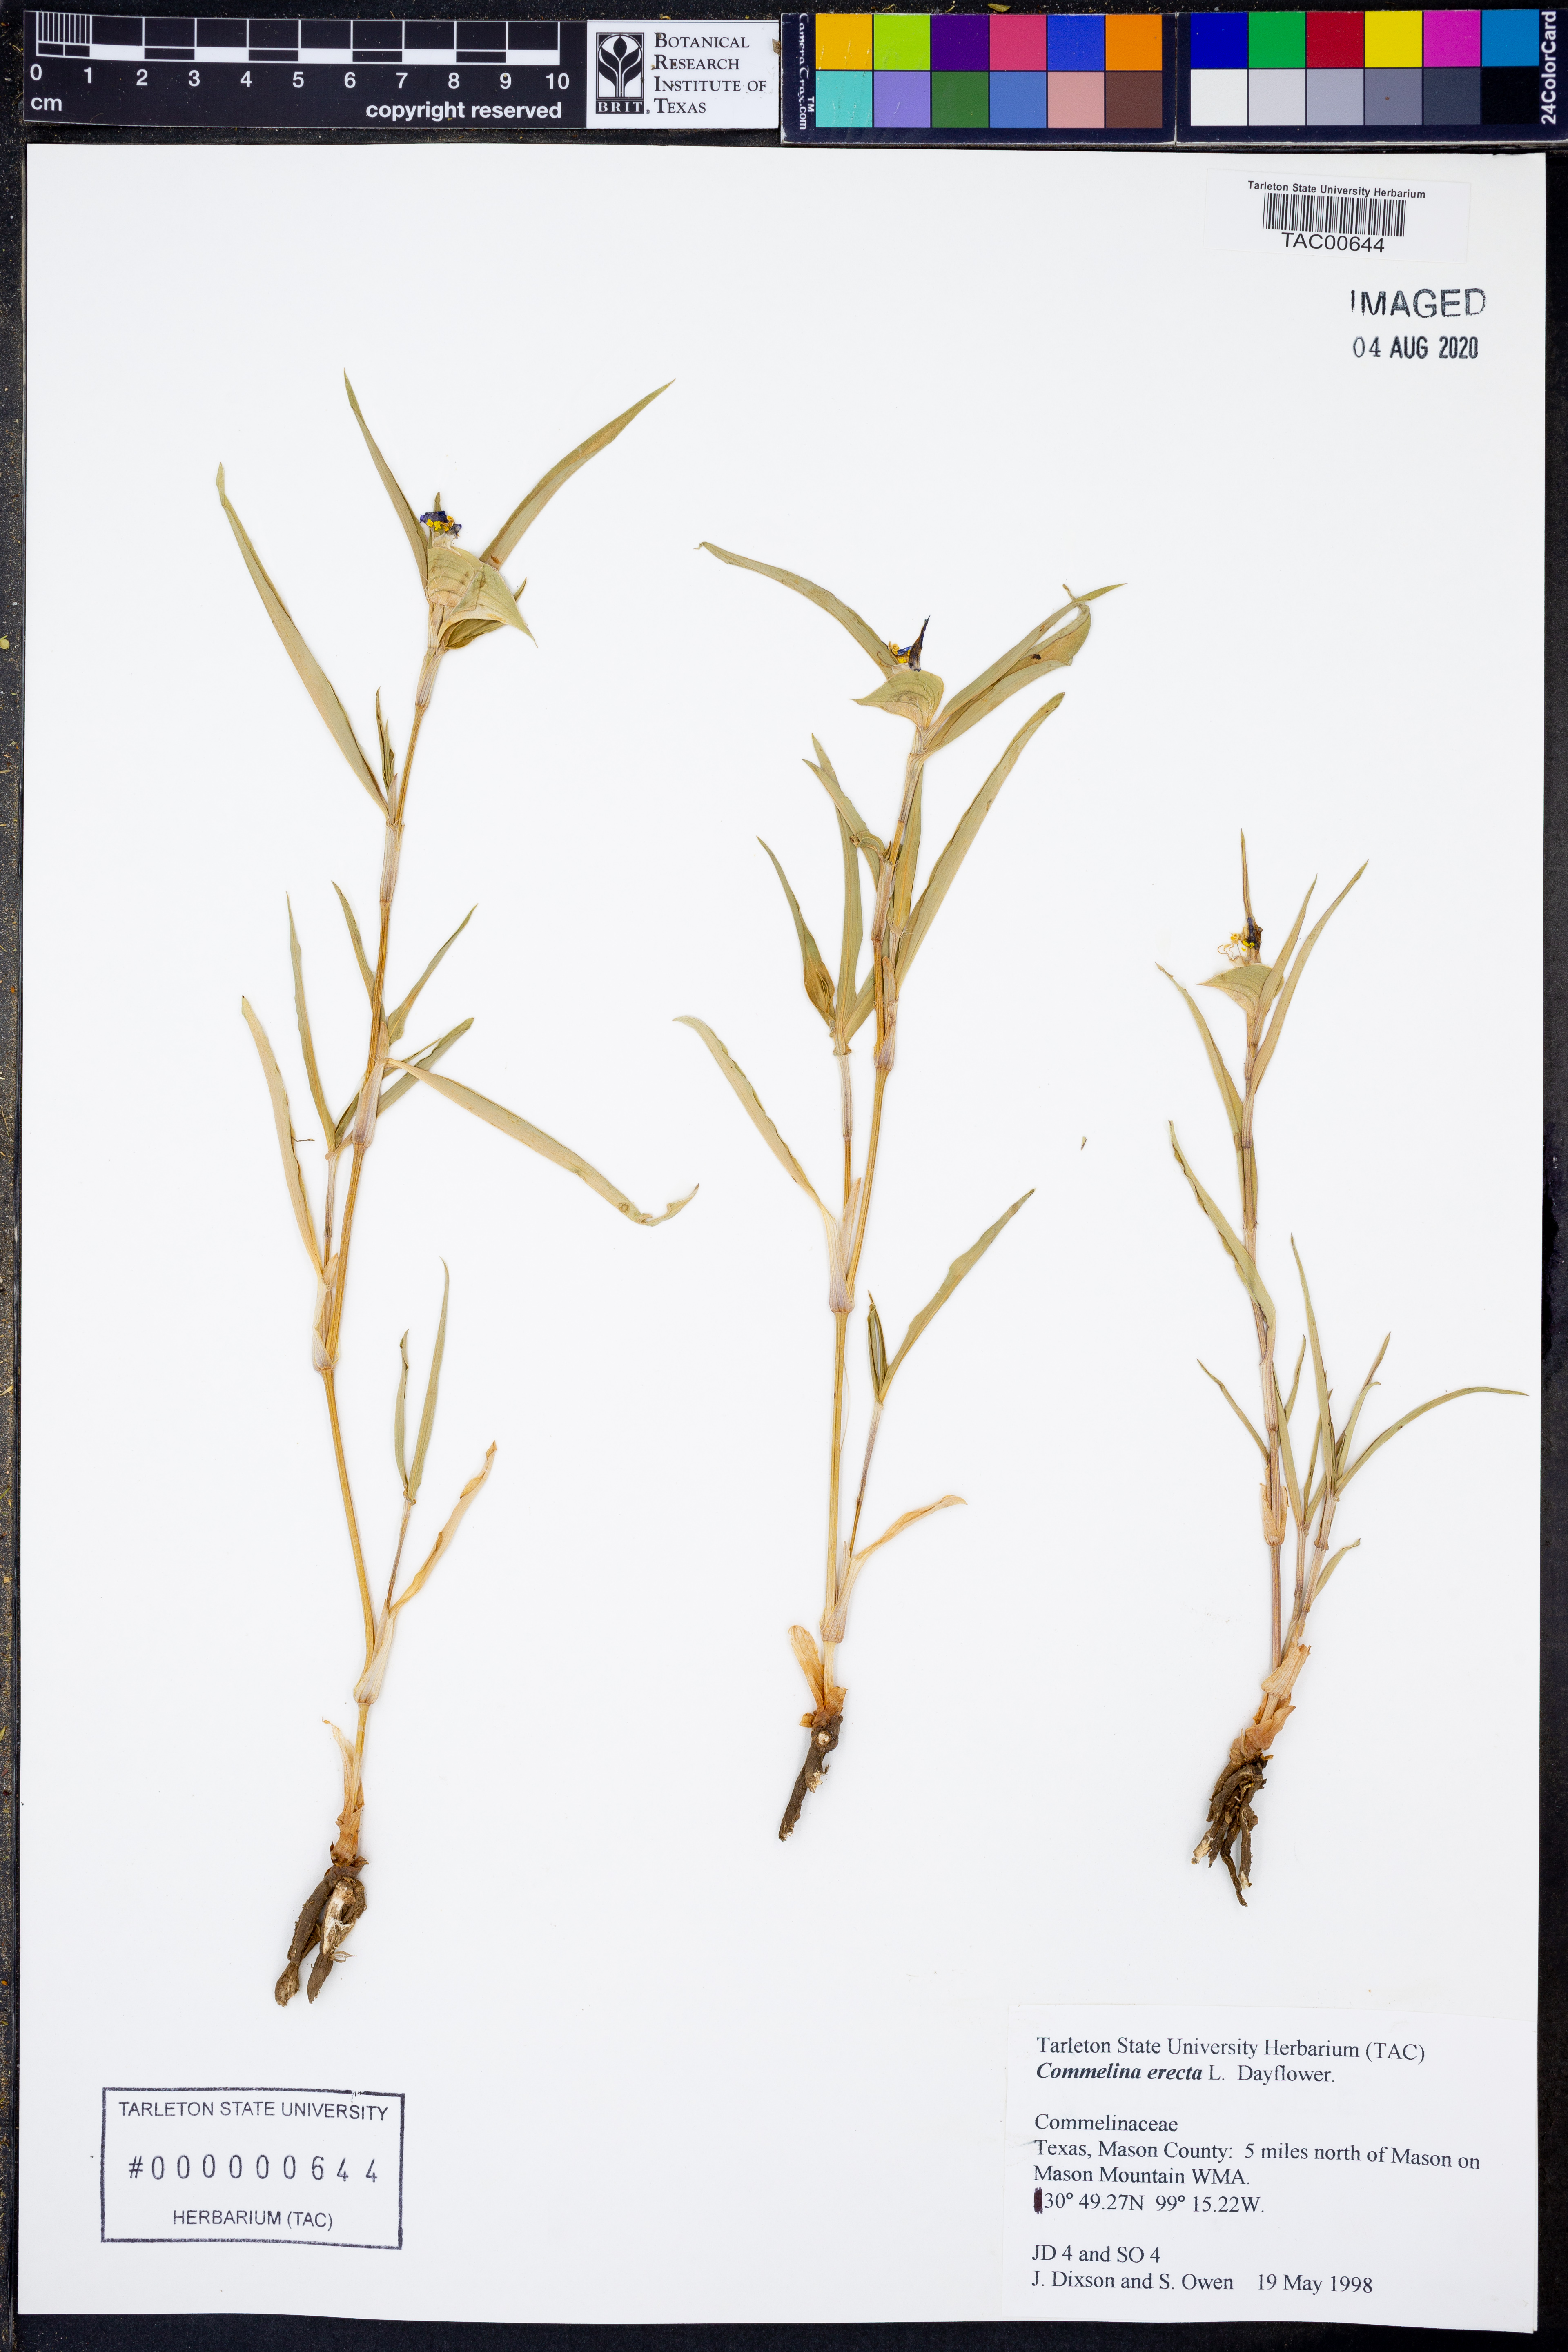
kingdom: Plantae
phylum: Tracheophyta
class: Liliopsida
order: Commelinales
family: Commelinaceae
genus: Commelina
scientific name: Commelina erecta
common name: Blousel blommetjie
